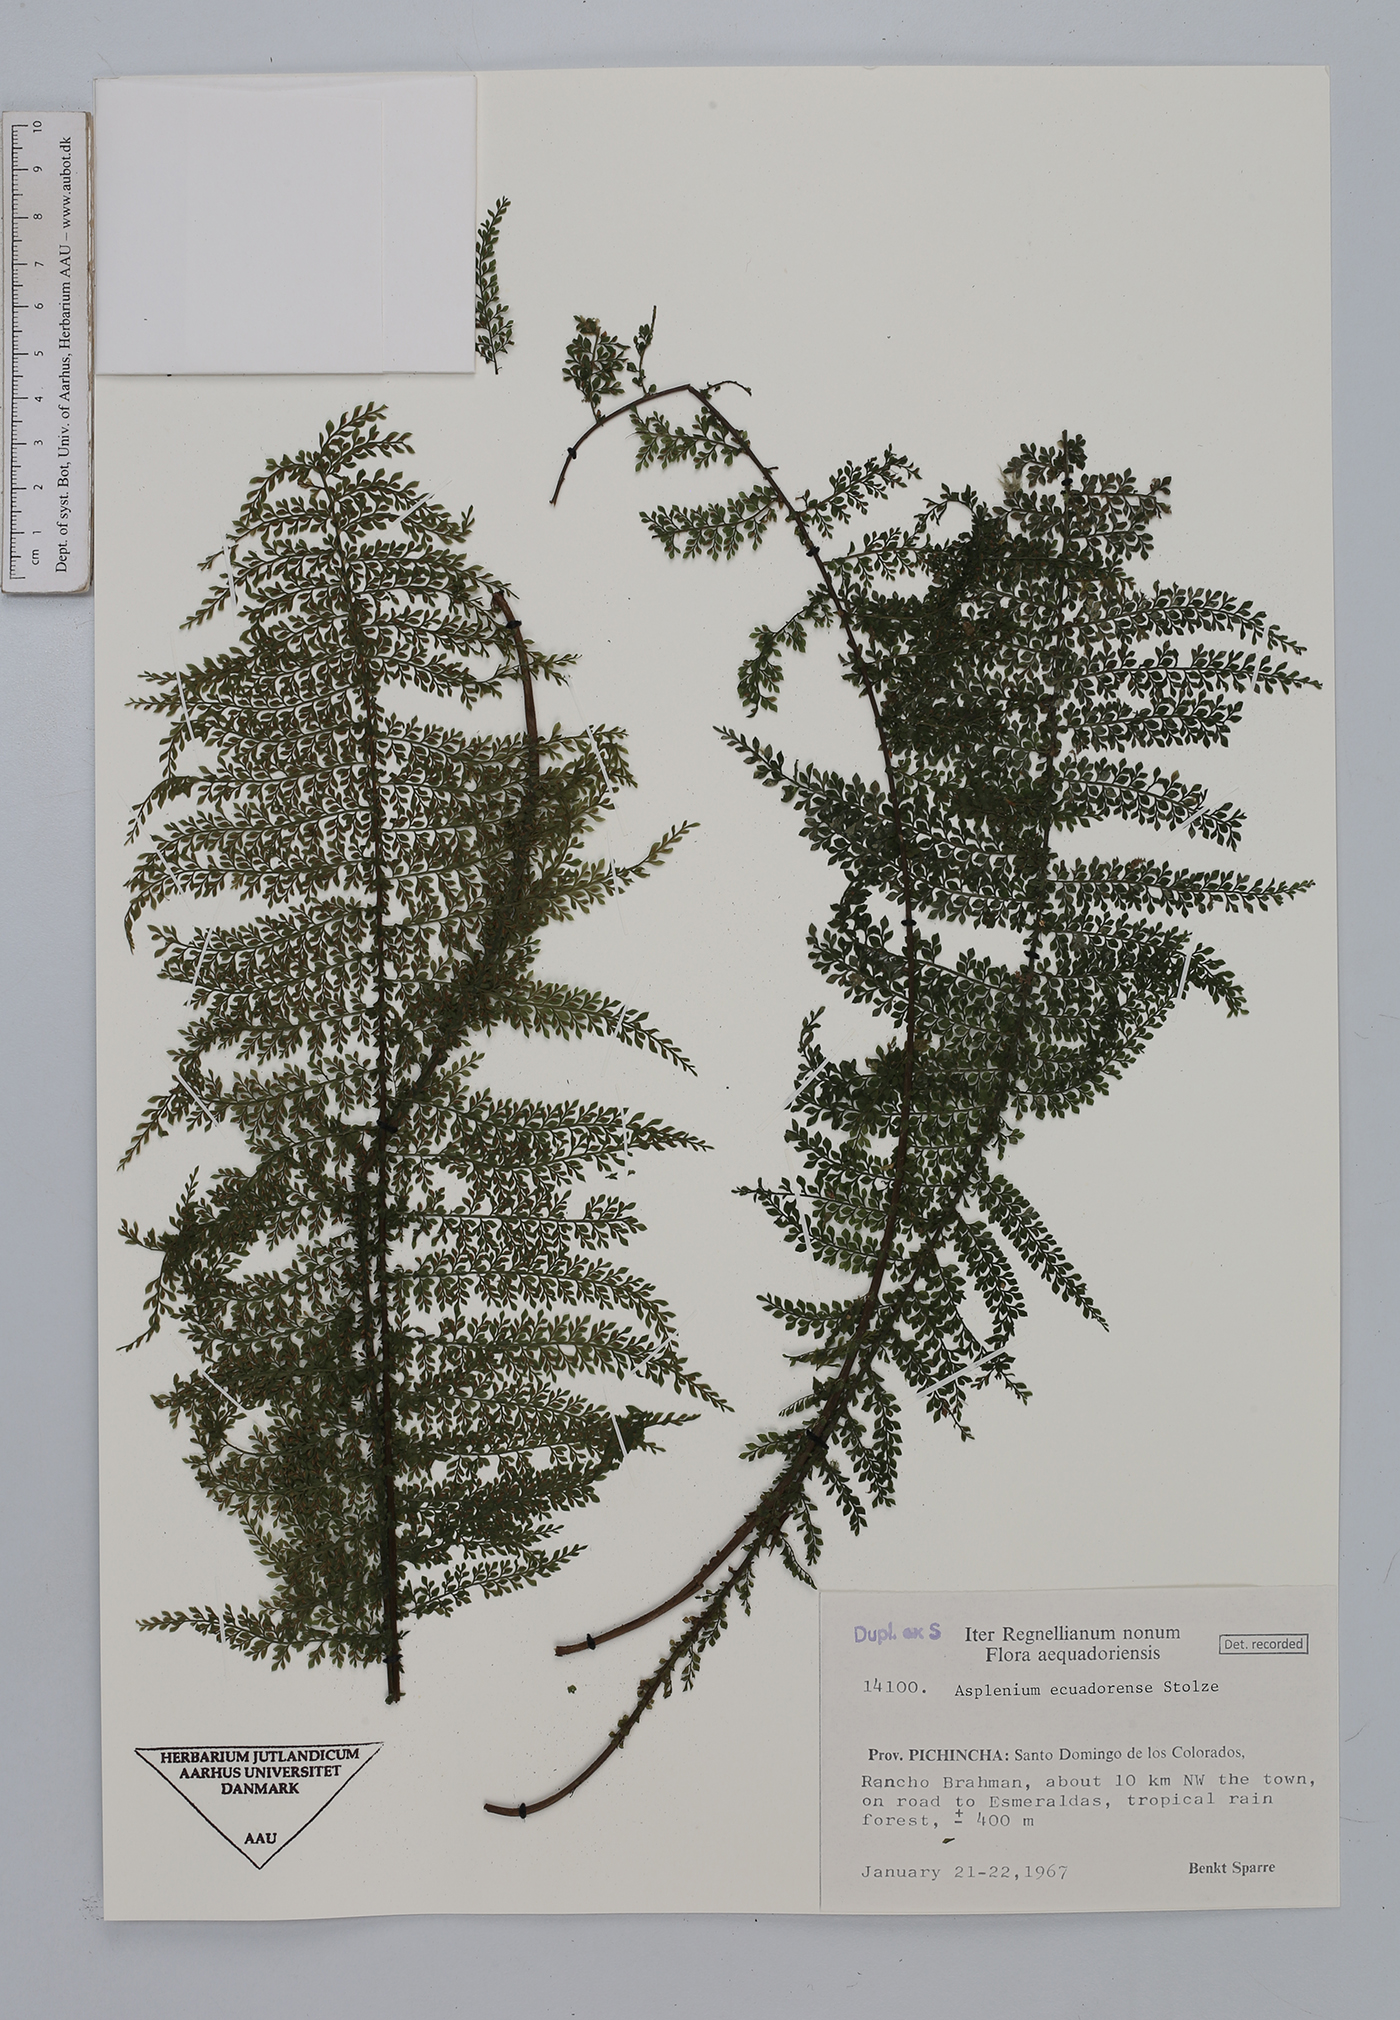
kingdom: Plantae
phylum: Tracheophyta
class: Polypodiopsida
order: Polypodiales
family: Aspleniaceae
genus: Asplenium
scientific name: Asplenium ecuadorense
